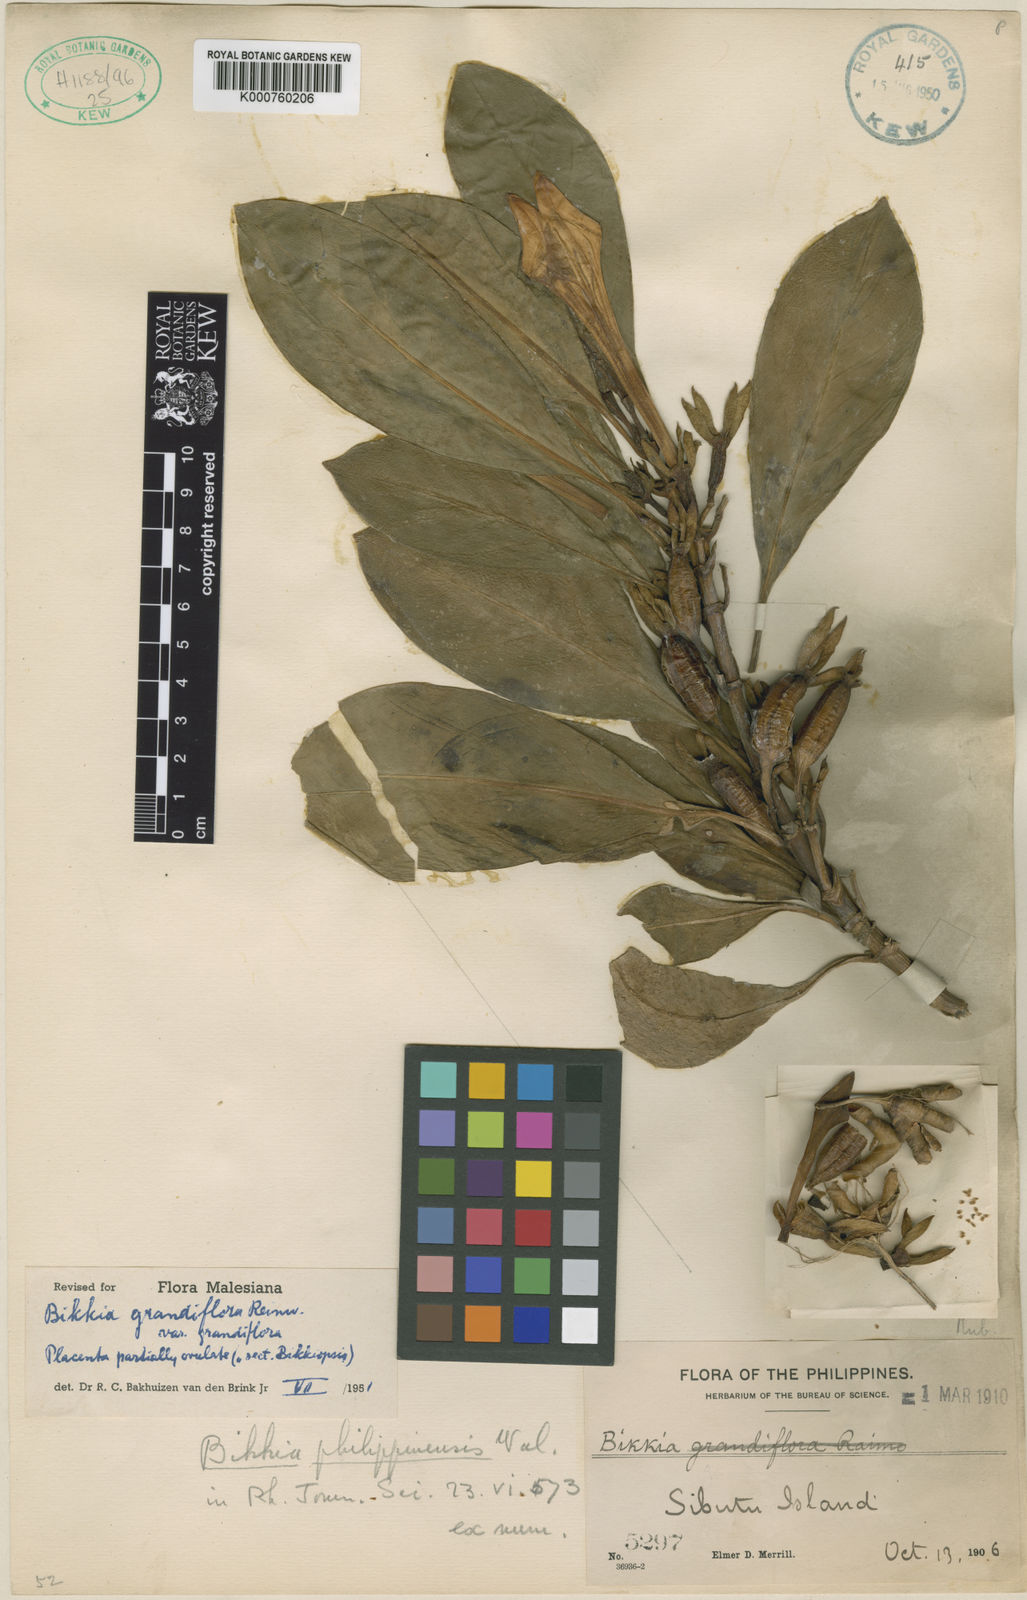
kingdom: Plantae
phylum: Tracheophyta
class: Magnoliopsida
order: Gentianales
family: Rubiaceae
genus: Bikkia
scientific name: Bikkia
